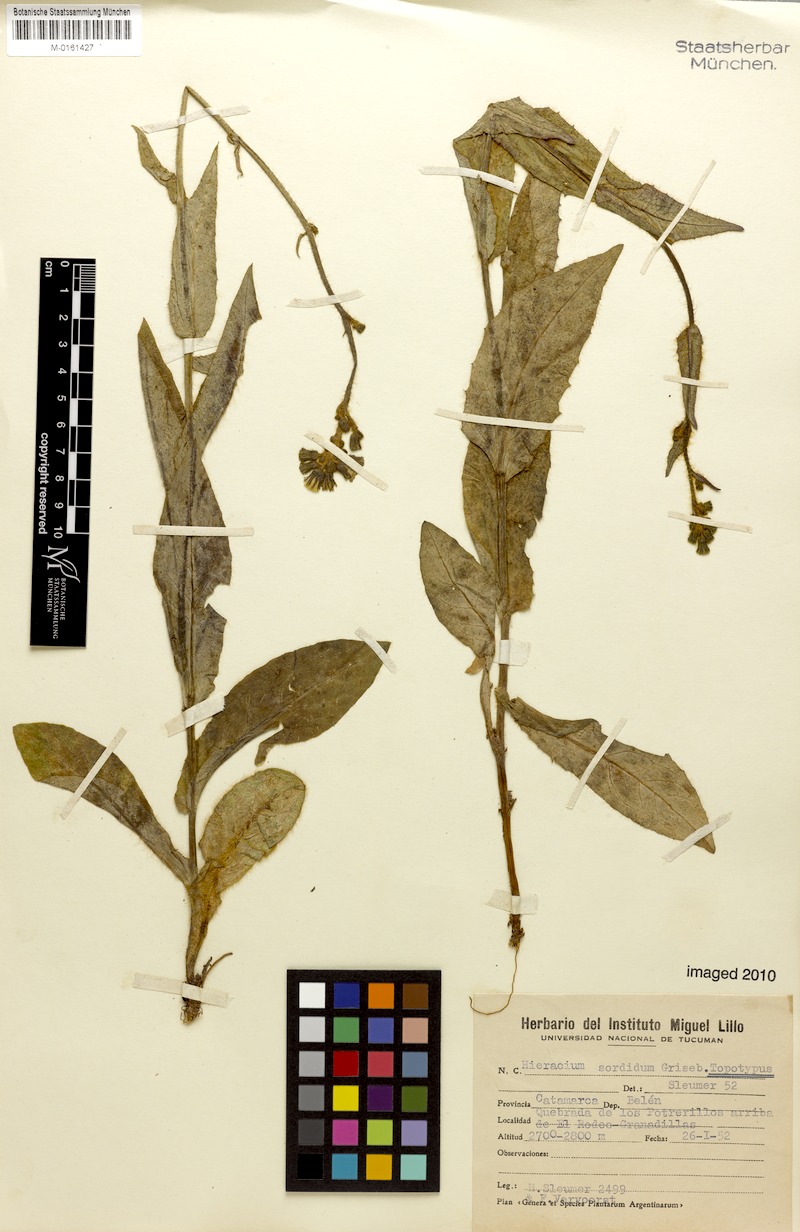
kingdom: Plantae
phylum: Tracheophyta
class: Magnoliopsida
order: Asterales
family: Asteraceae
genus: Hieracium
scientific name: Hieracium streptochaetum
